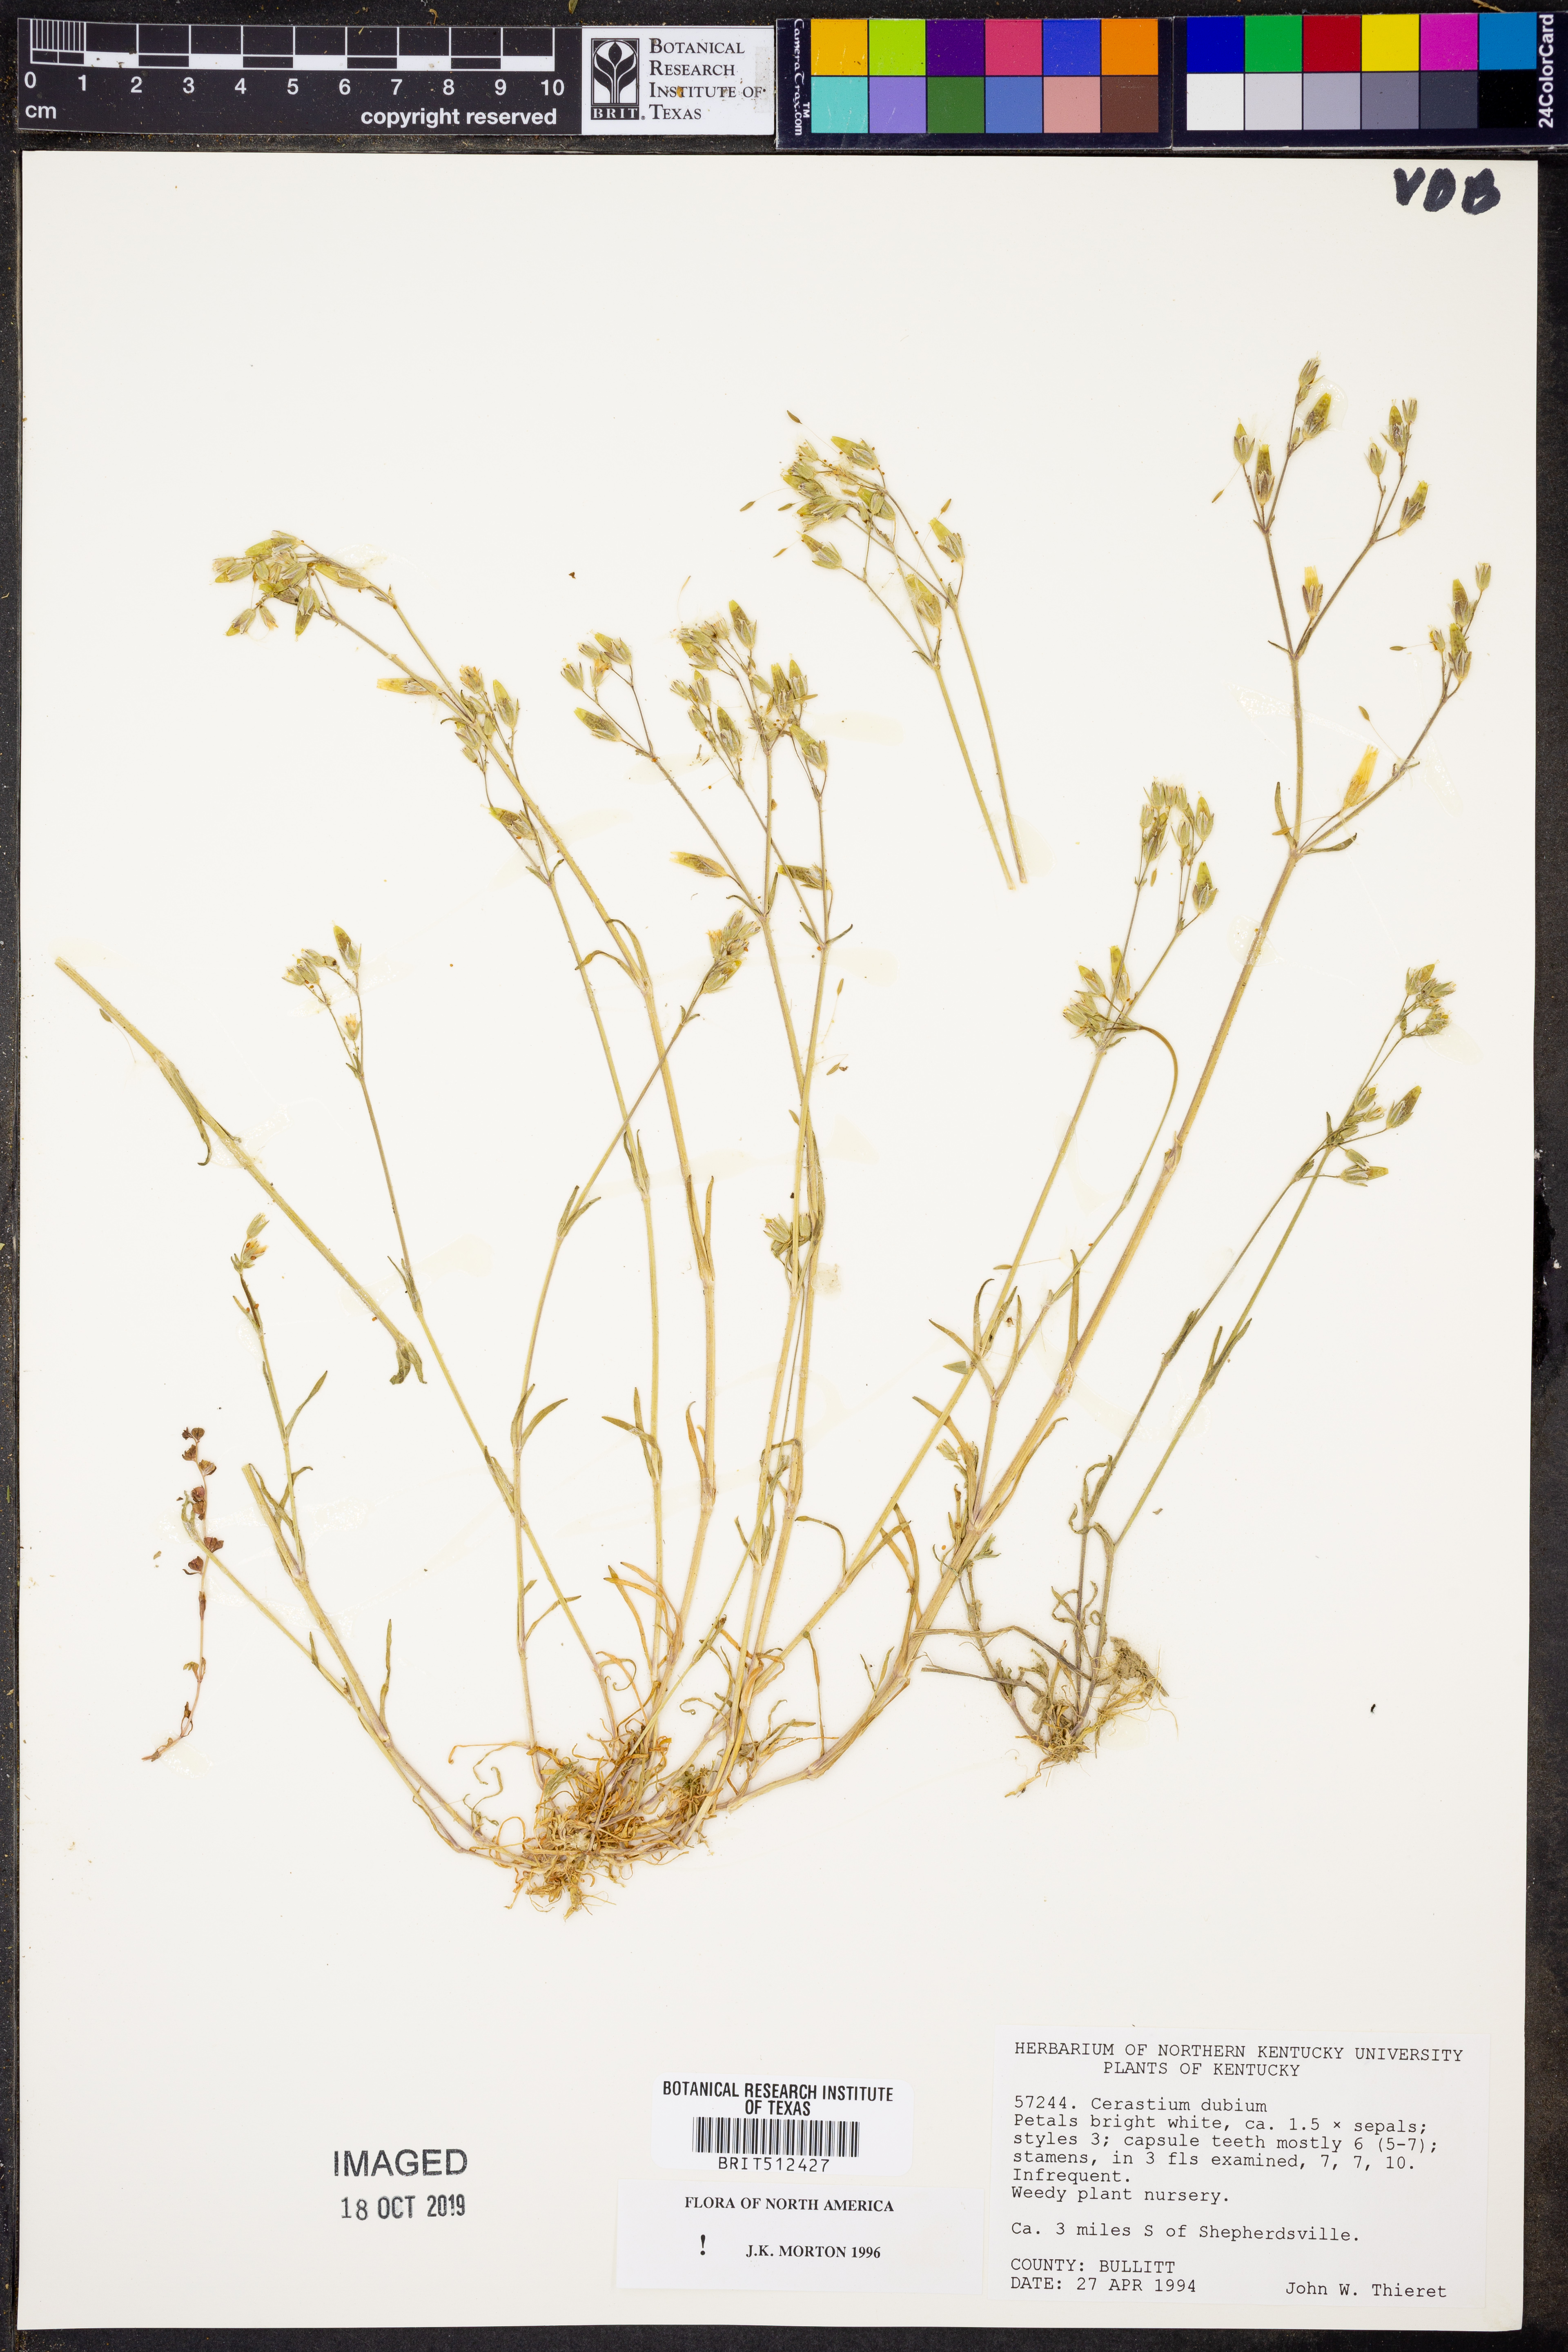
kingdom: Plantae
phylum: Tracheophyta
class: Magnoliopsida
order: Caryophyllales
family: Caryophyllaceae
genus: Dichodon
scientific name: Dichodon viscidum
